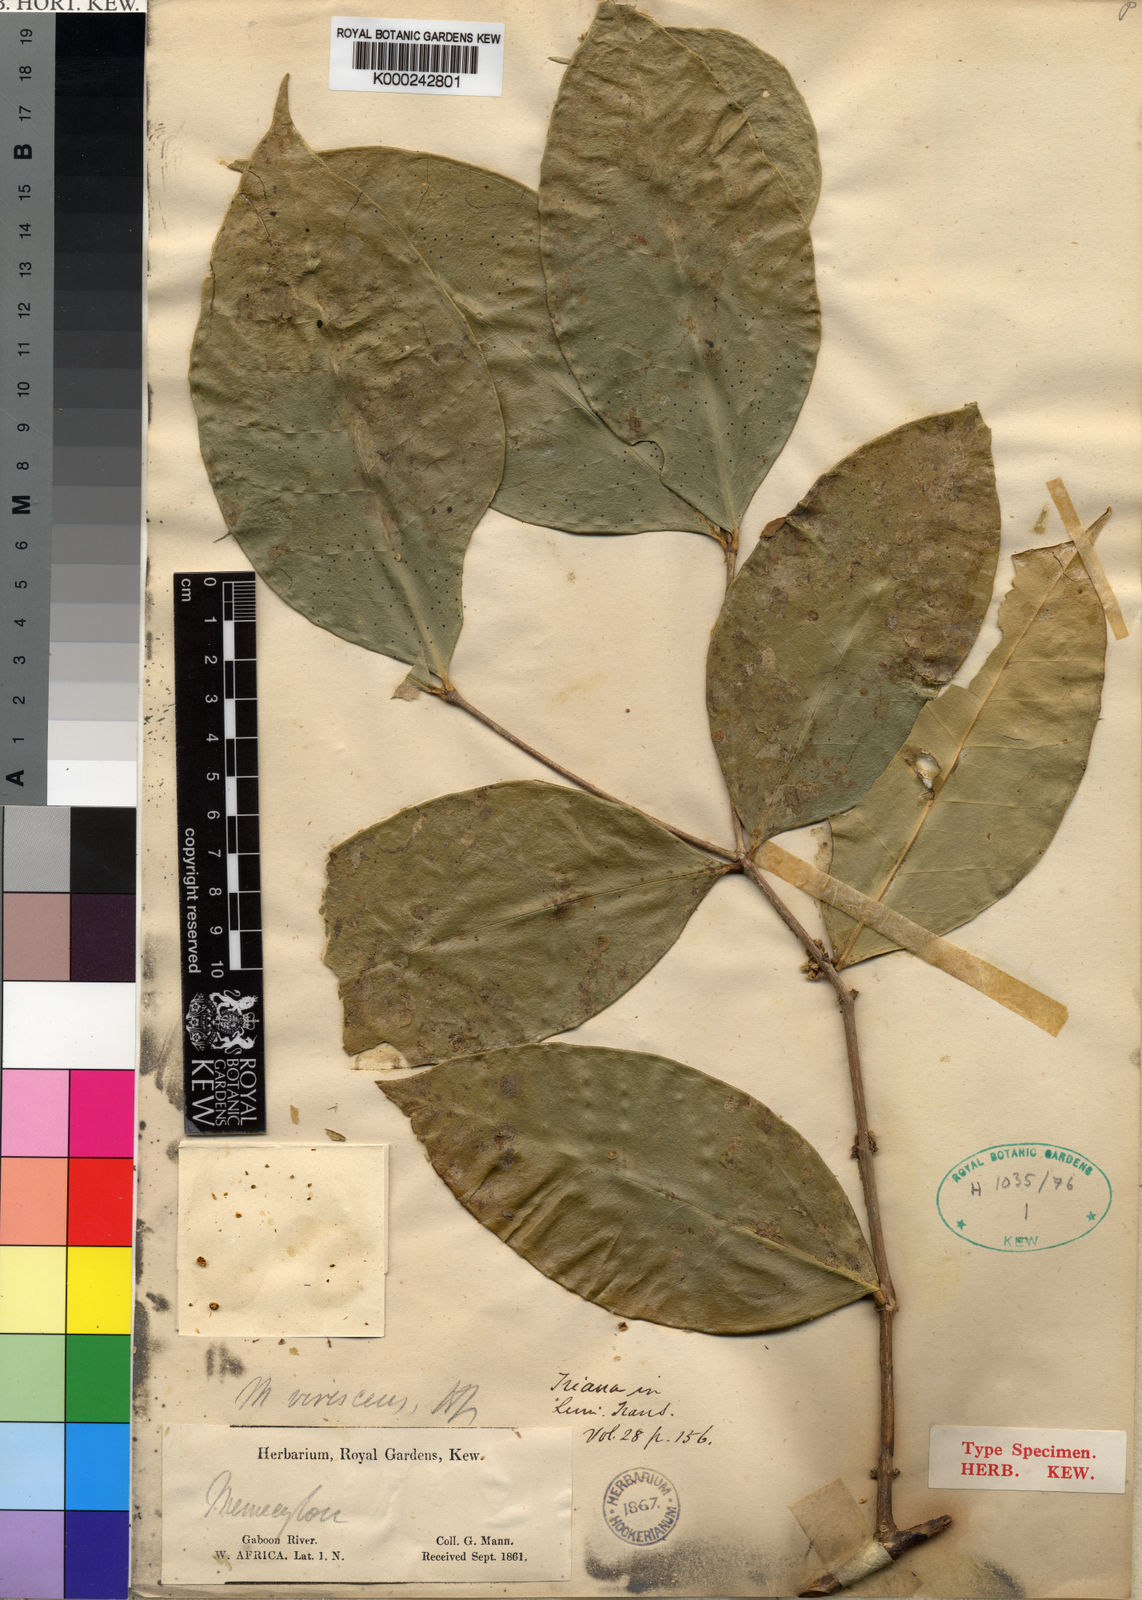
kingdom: Plantae
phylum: Tracheophyta
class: Magnoliopsida
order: Myrtales
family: Melastomataceae
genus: Memecylon
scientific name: Memecylon virescens
